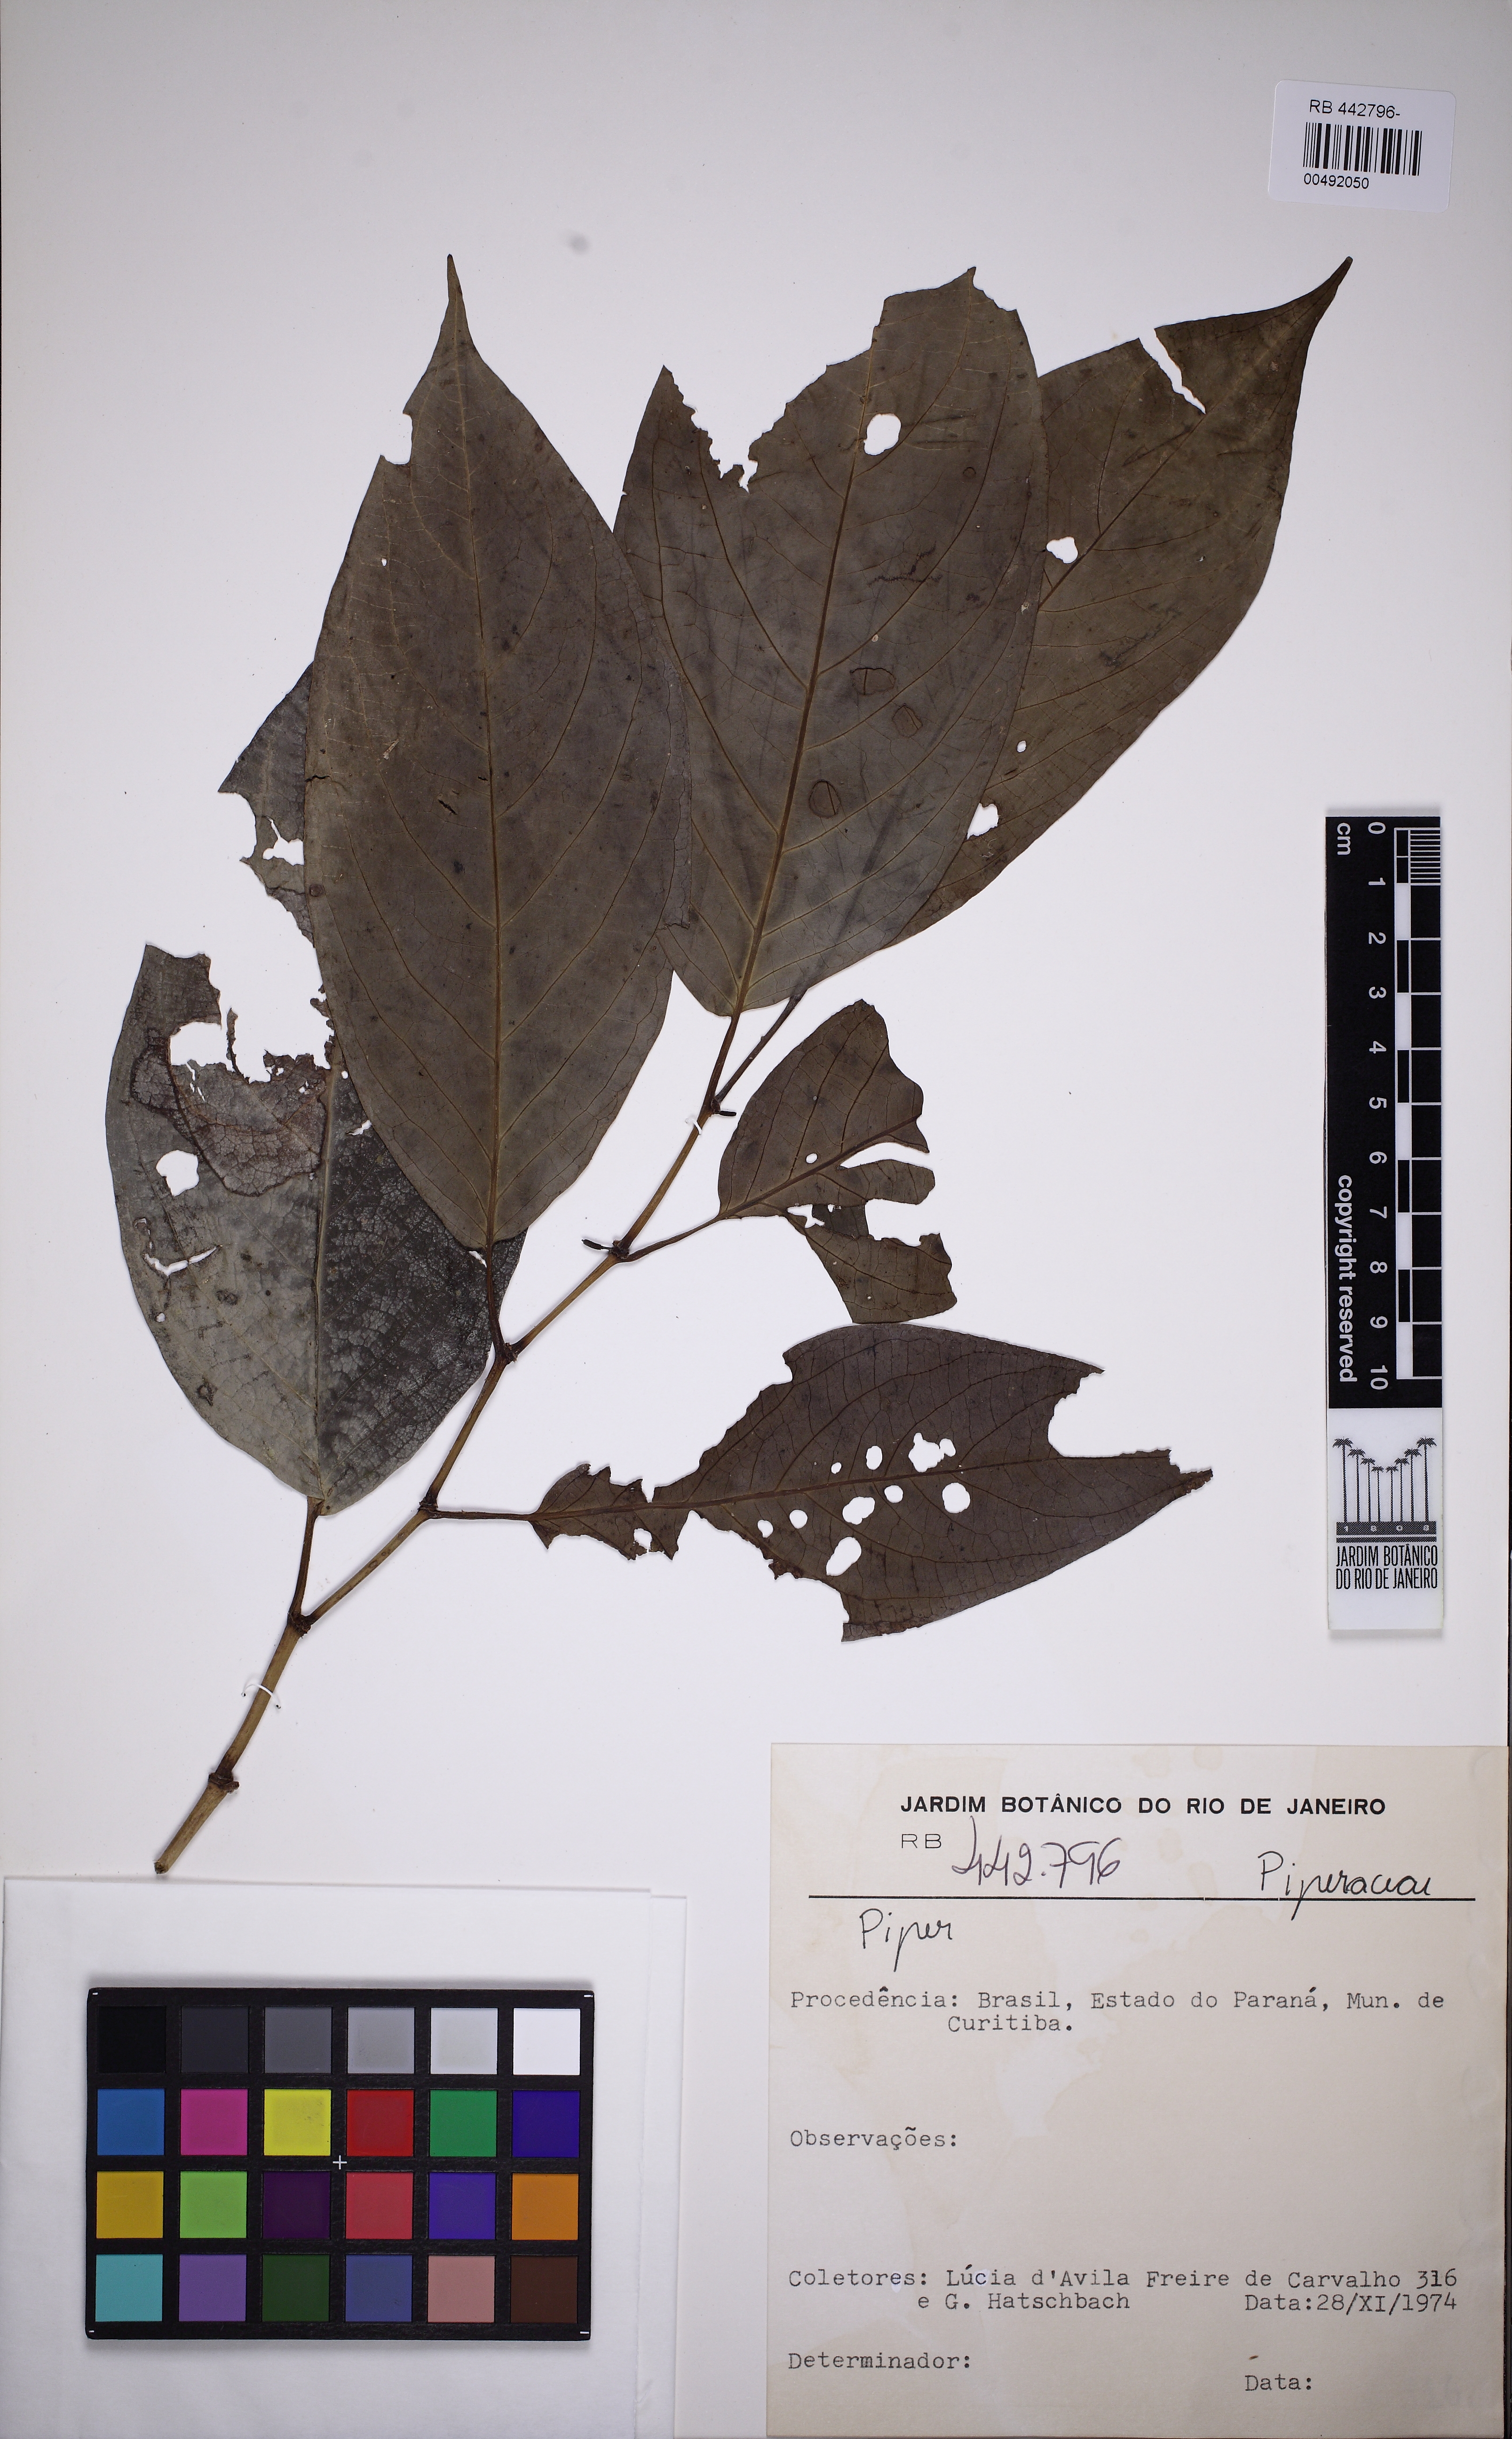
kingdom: Plantae
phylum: Tracheophyta
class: Magnoliopsida
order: Piperales
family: Piperaceae
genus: Piper
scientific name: Piper fluminense
